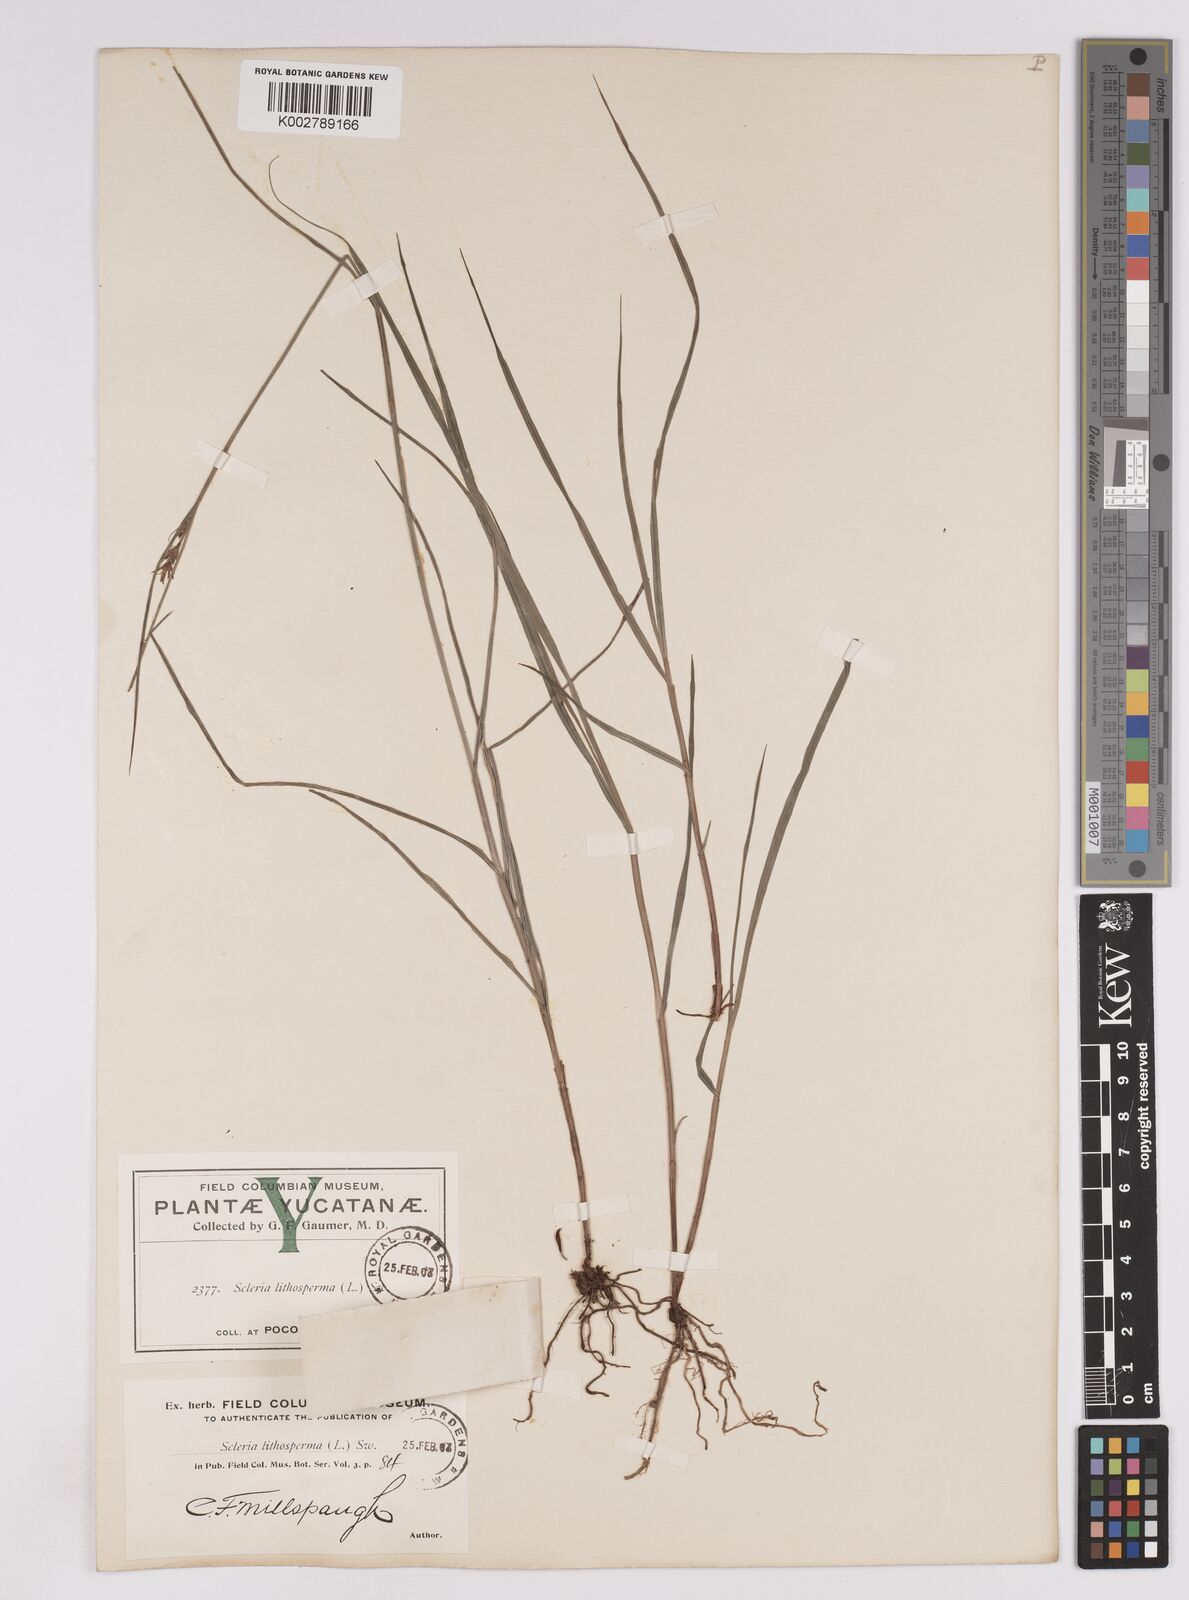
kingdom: Plantae
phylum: Tracheophyta
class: Liliopsida
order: Poales
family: Cyperaceae
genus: Scleria
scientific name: Scleria lithosperma
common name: Florida keys nut-rush
